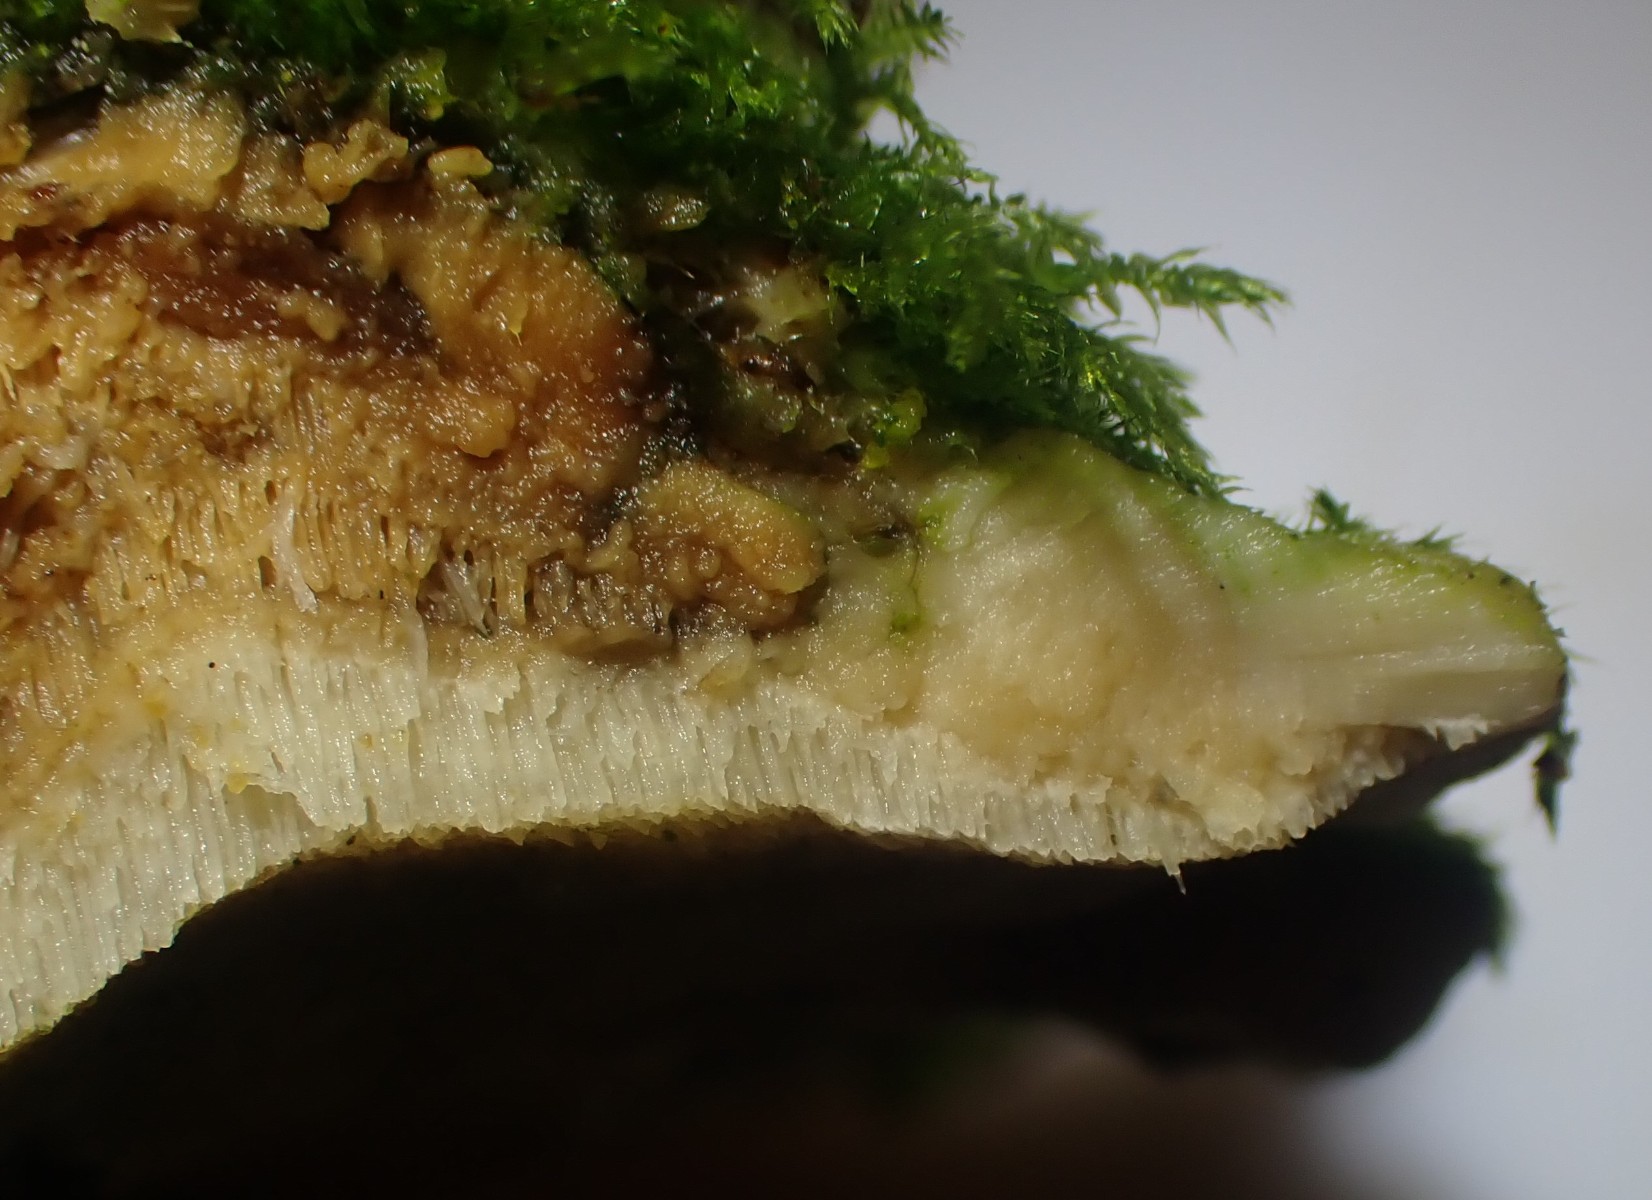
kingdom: Fungi
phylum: Basidiomycota
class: Agaricomycetes
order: Hymenochaetales
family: Oxyporaceae
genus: Oxyporus
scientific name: Oxyporus populinus
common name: sammenvokset trylleporesvamp
